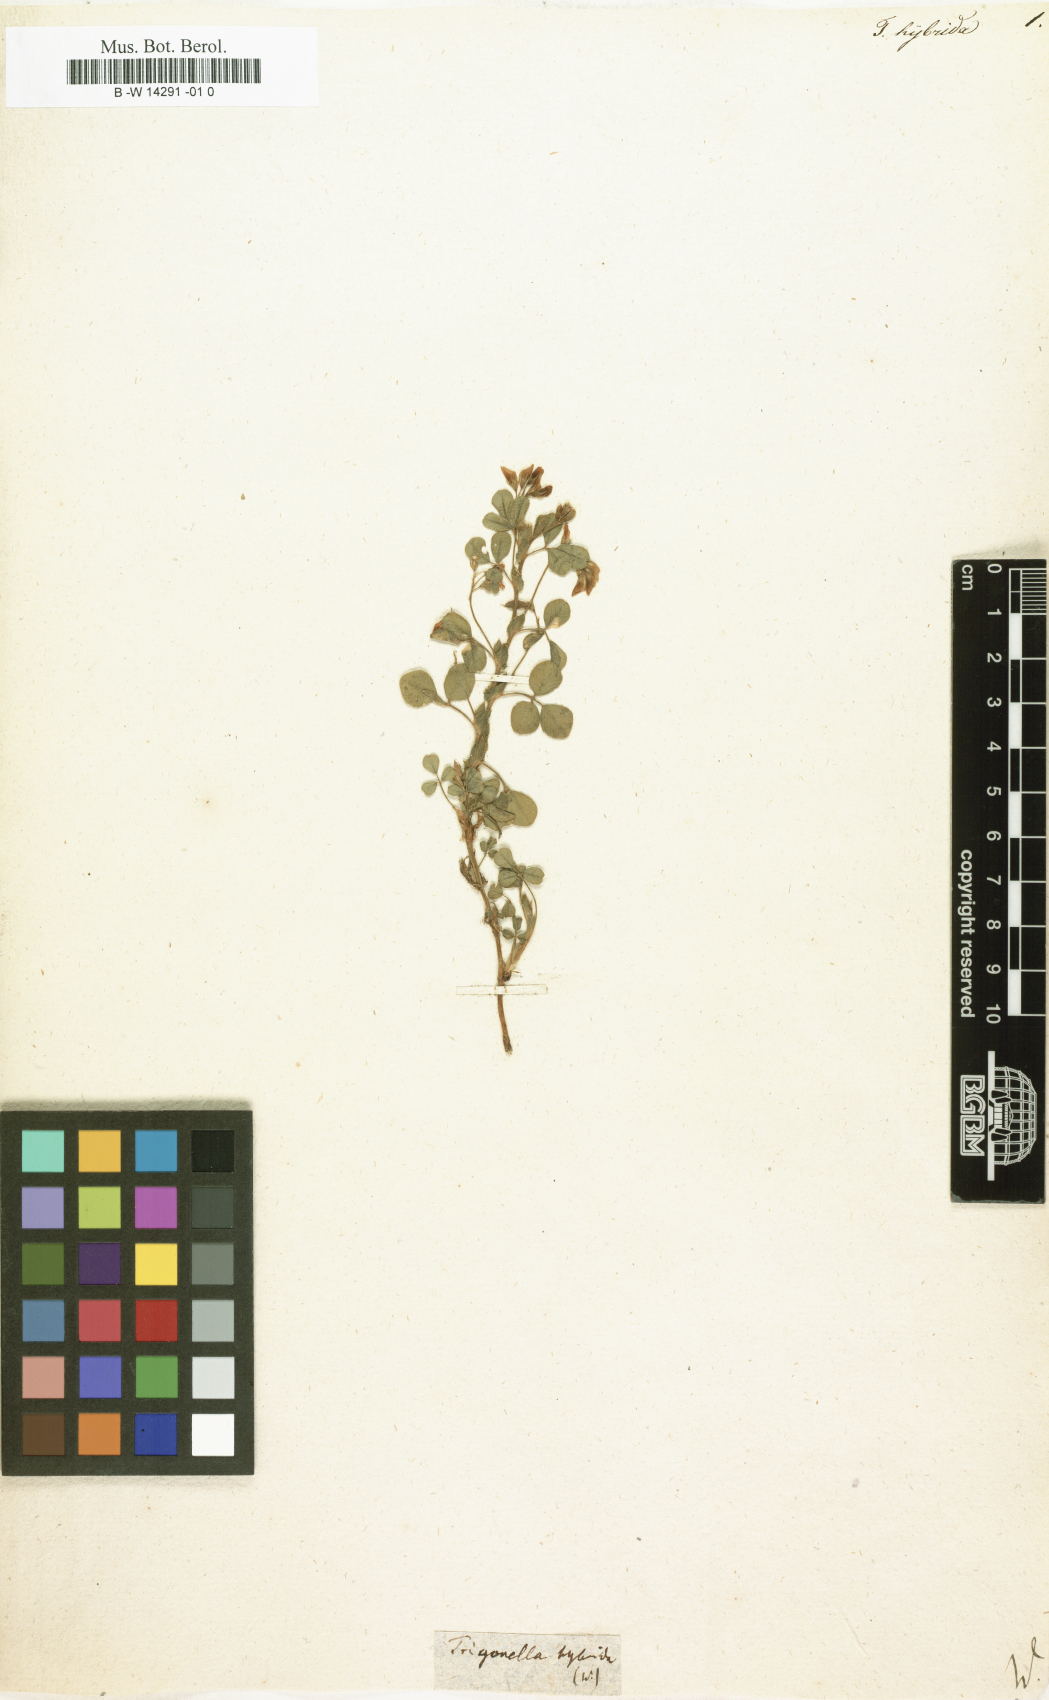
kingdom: Plantae
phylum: Tracheophyta
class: Magnoliopsida
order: Fabales
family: Fabaceae
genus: Medicago
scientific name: Medicago hybrida
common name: Hybrid alfalfa
